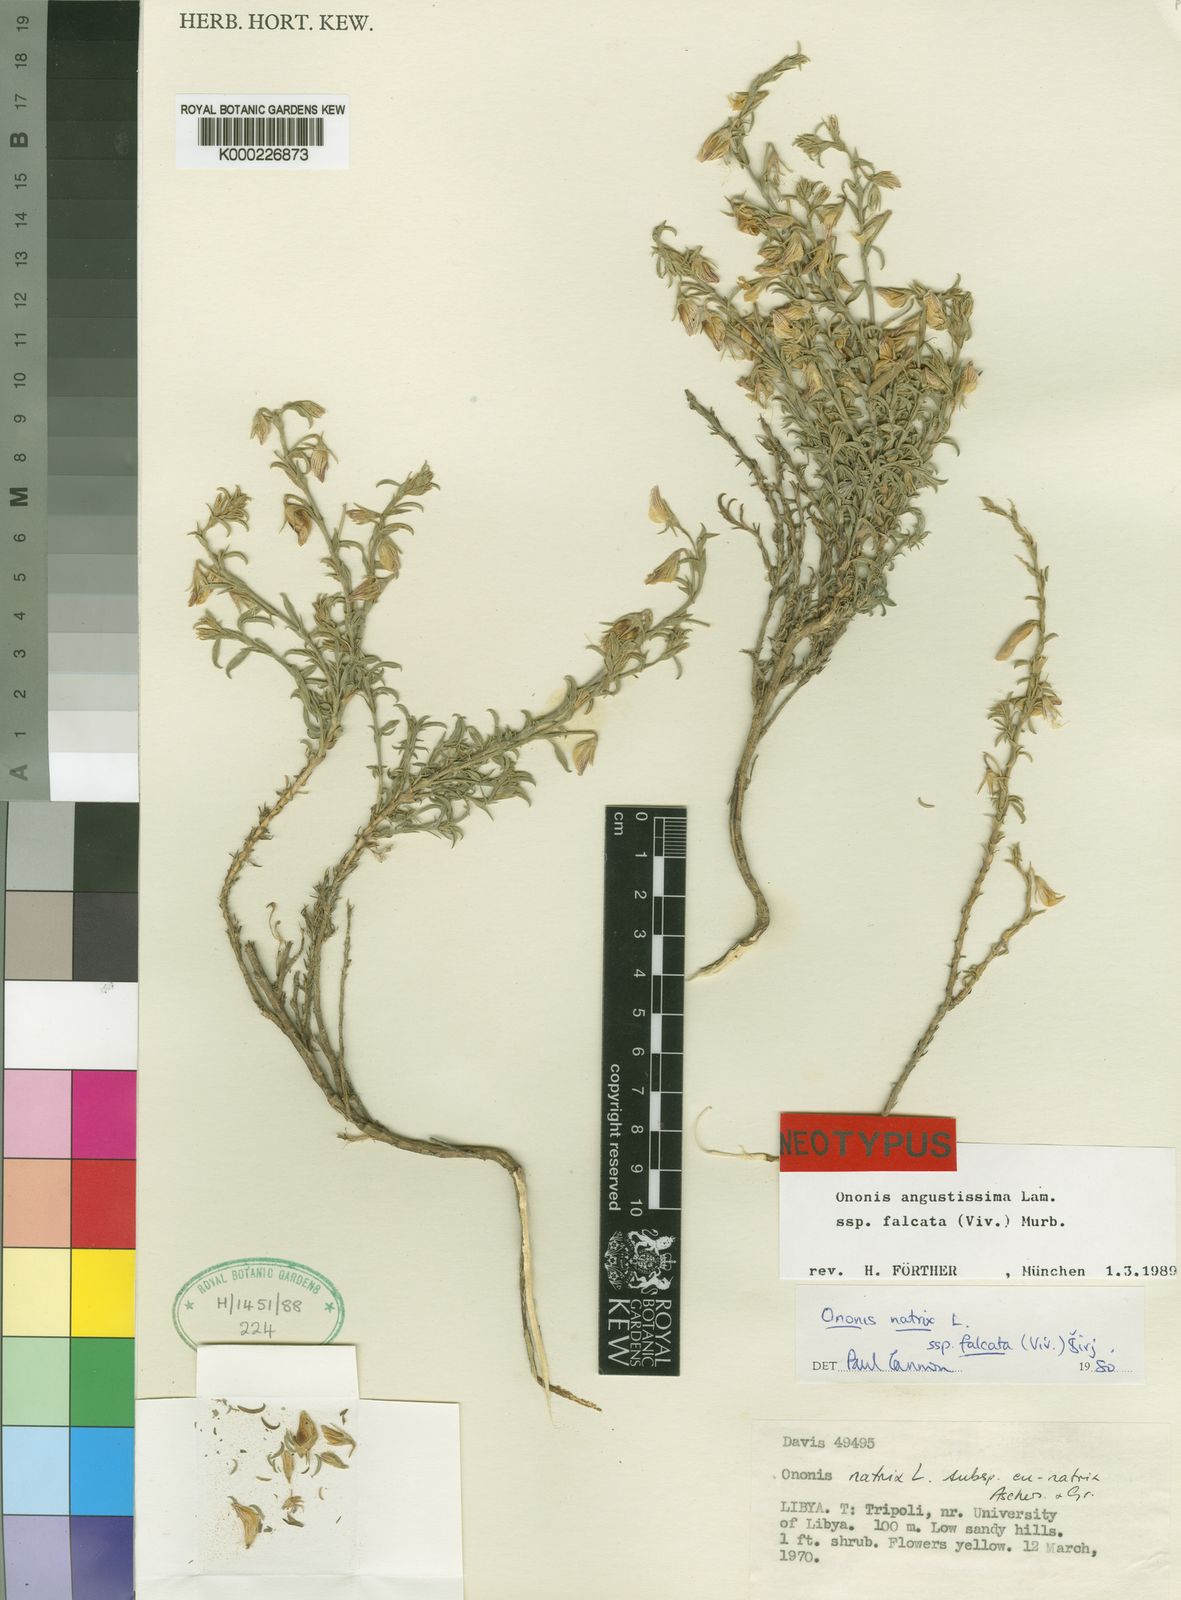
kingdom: Plantae
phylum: Tracheophyta
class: Magnoliopsida
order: Fabales
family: Fabaceae
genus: Ononis
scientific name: Ononis angustissima
